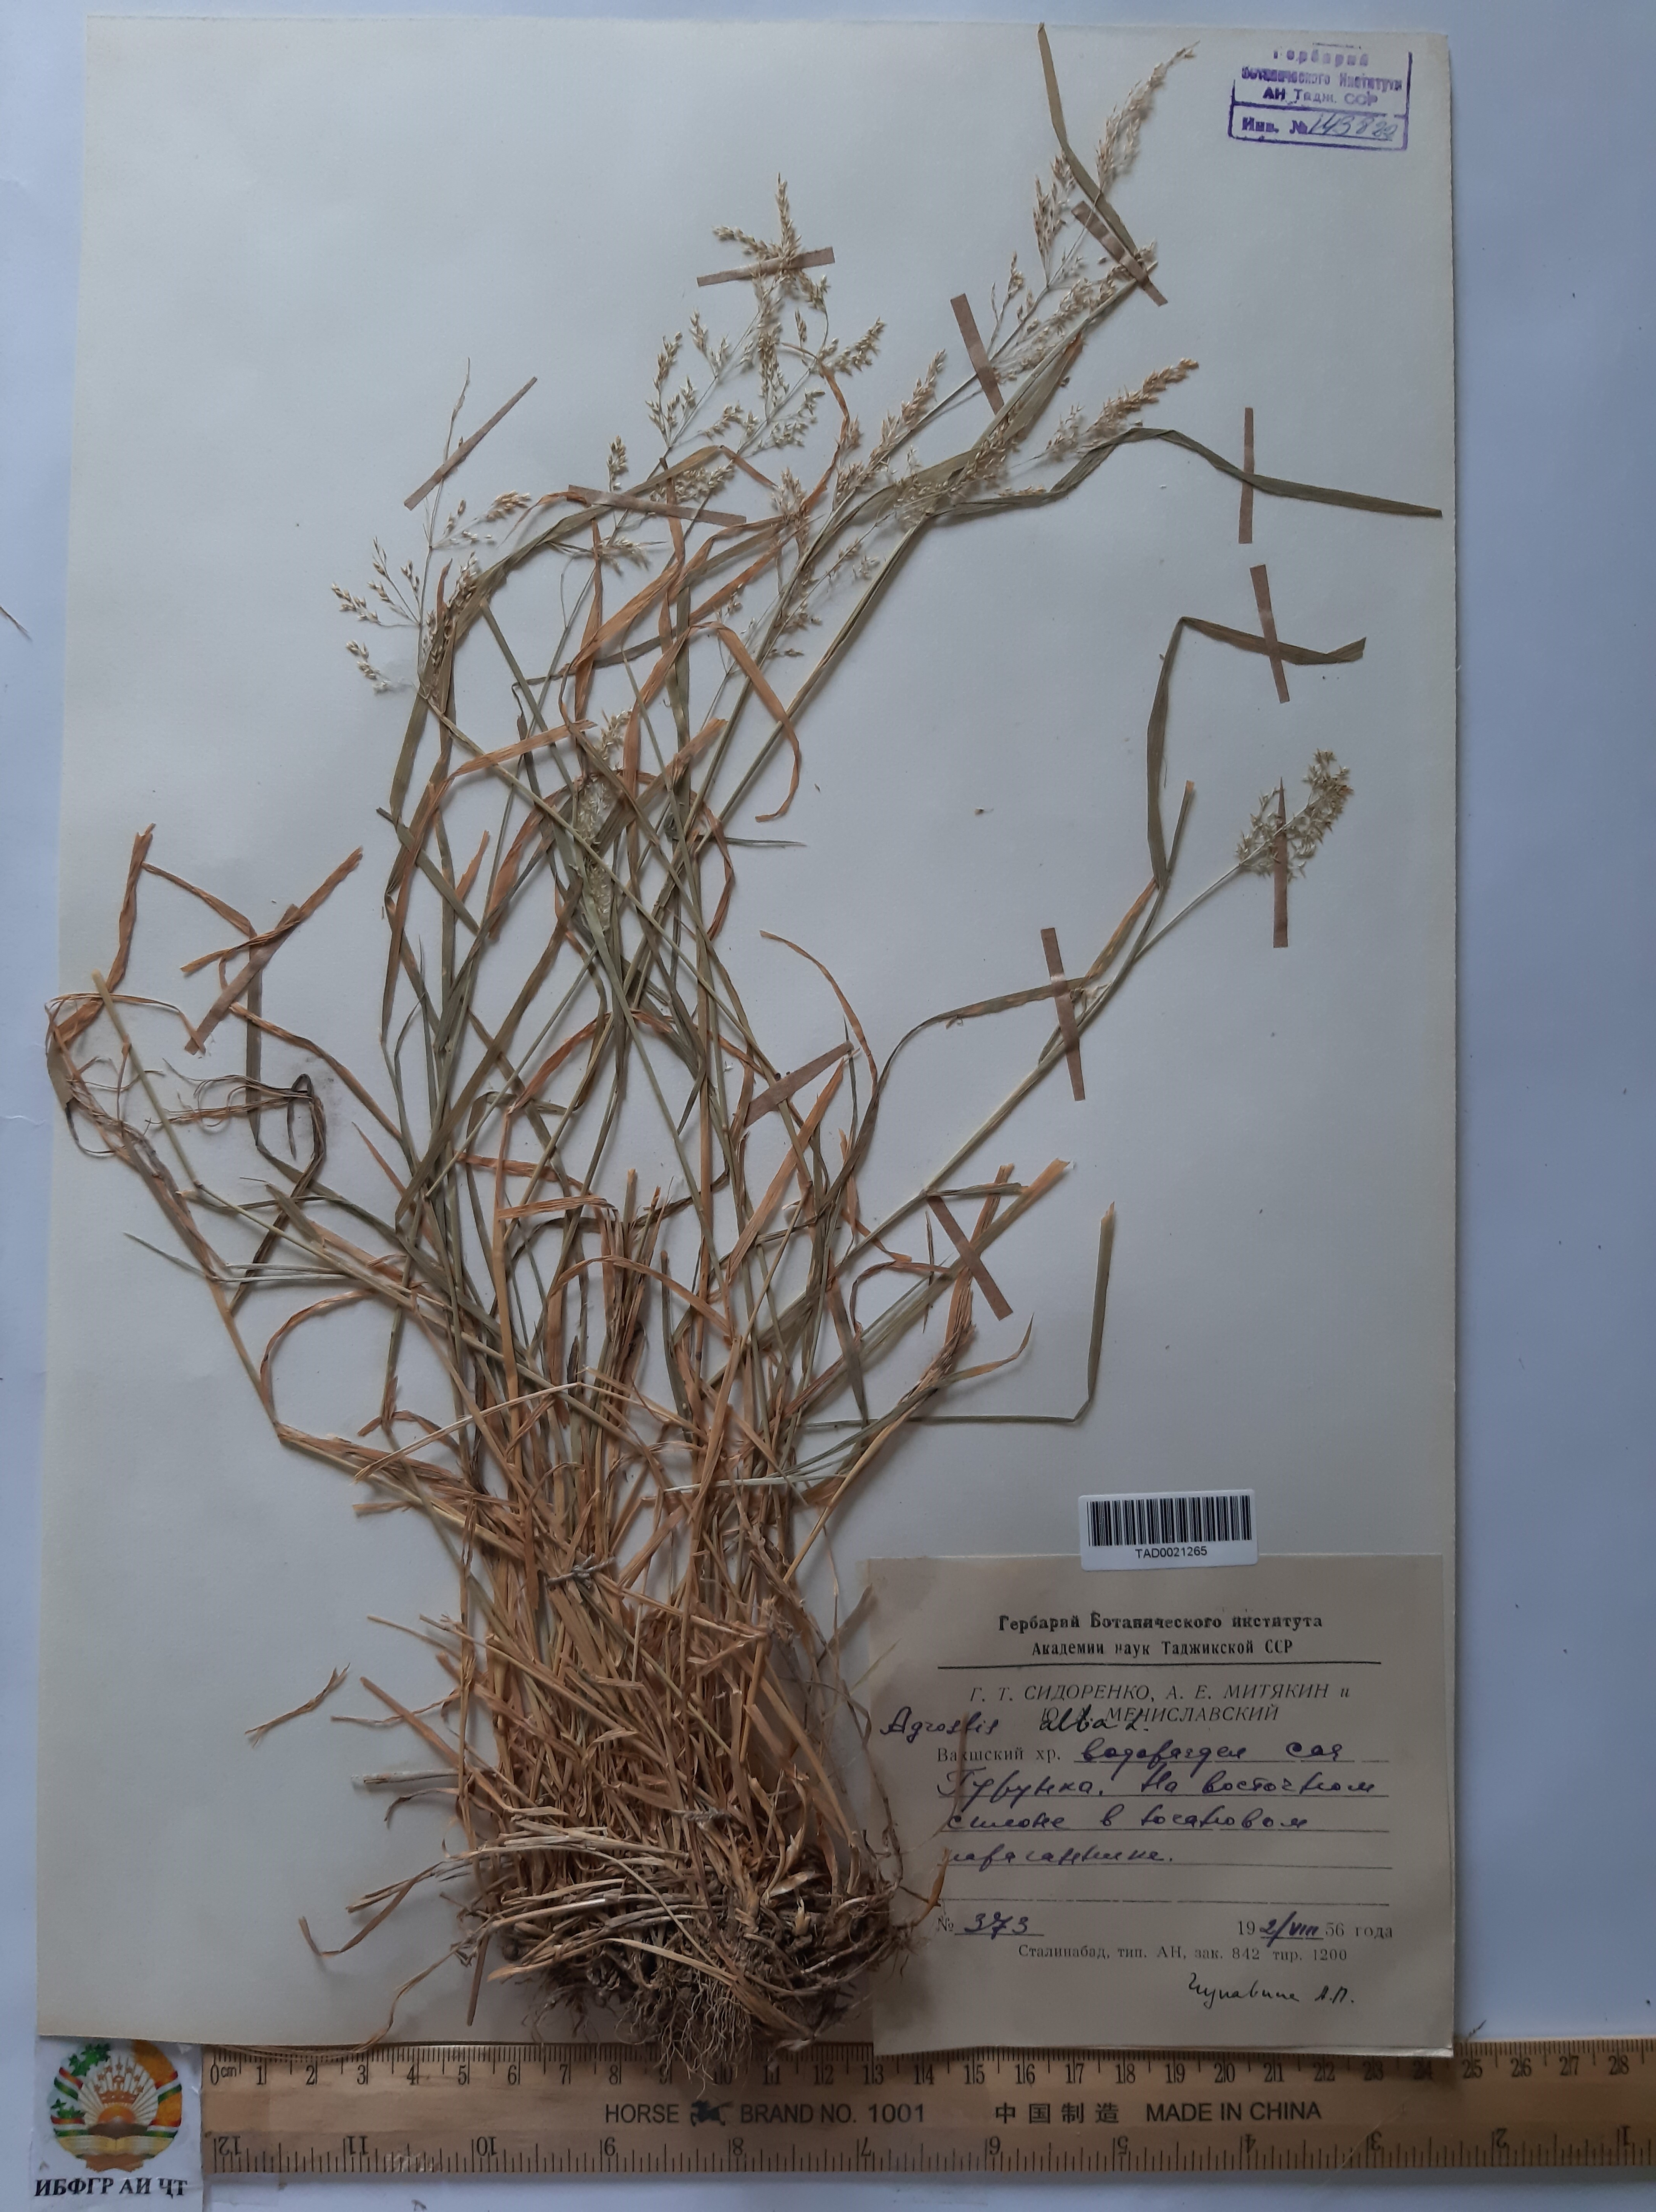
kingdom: Plantae
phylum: Tracheophyta
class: Liliopsida
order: Poales
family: Poaceae
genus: Poa
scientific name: Poa nemoralis
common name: Wood bluegrass
